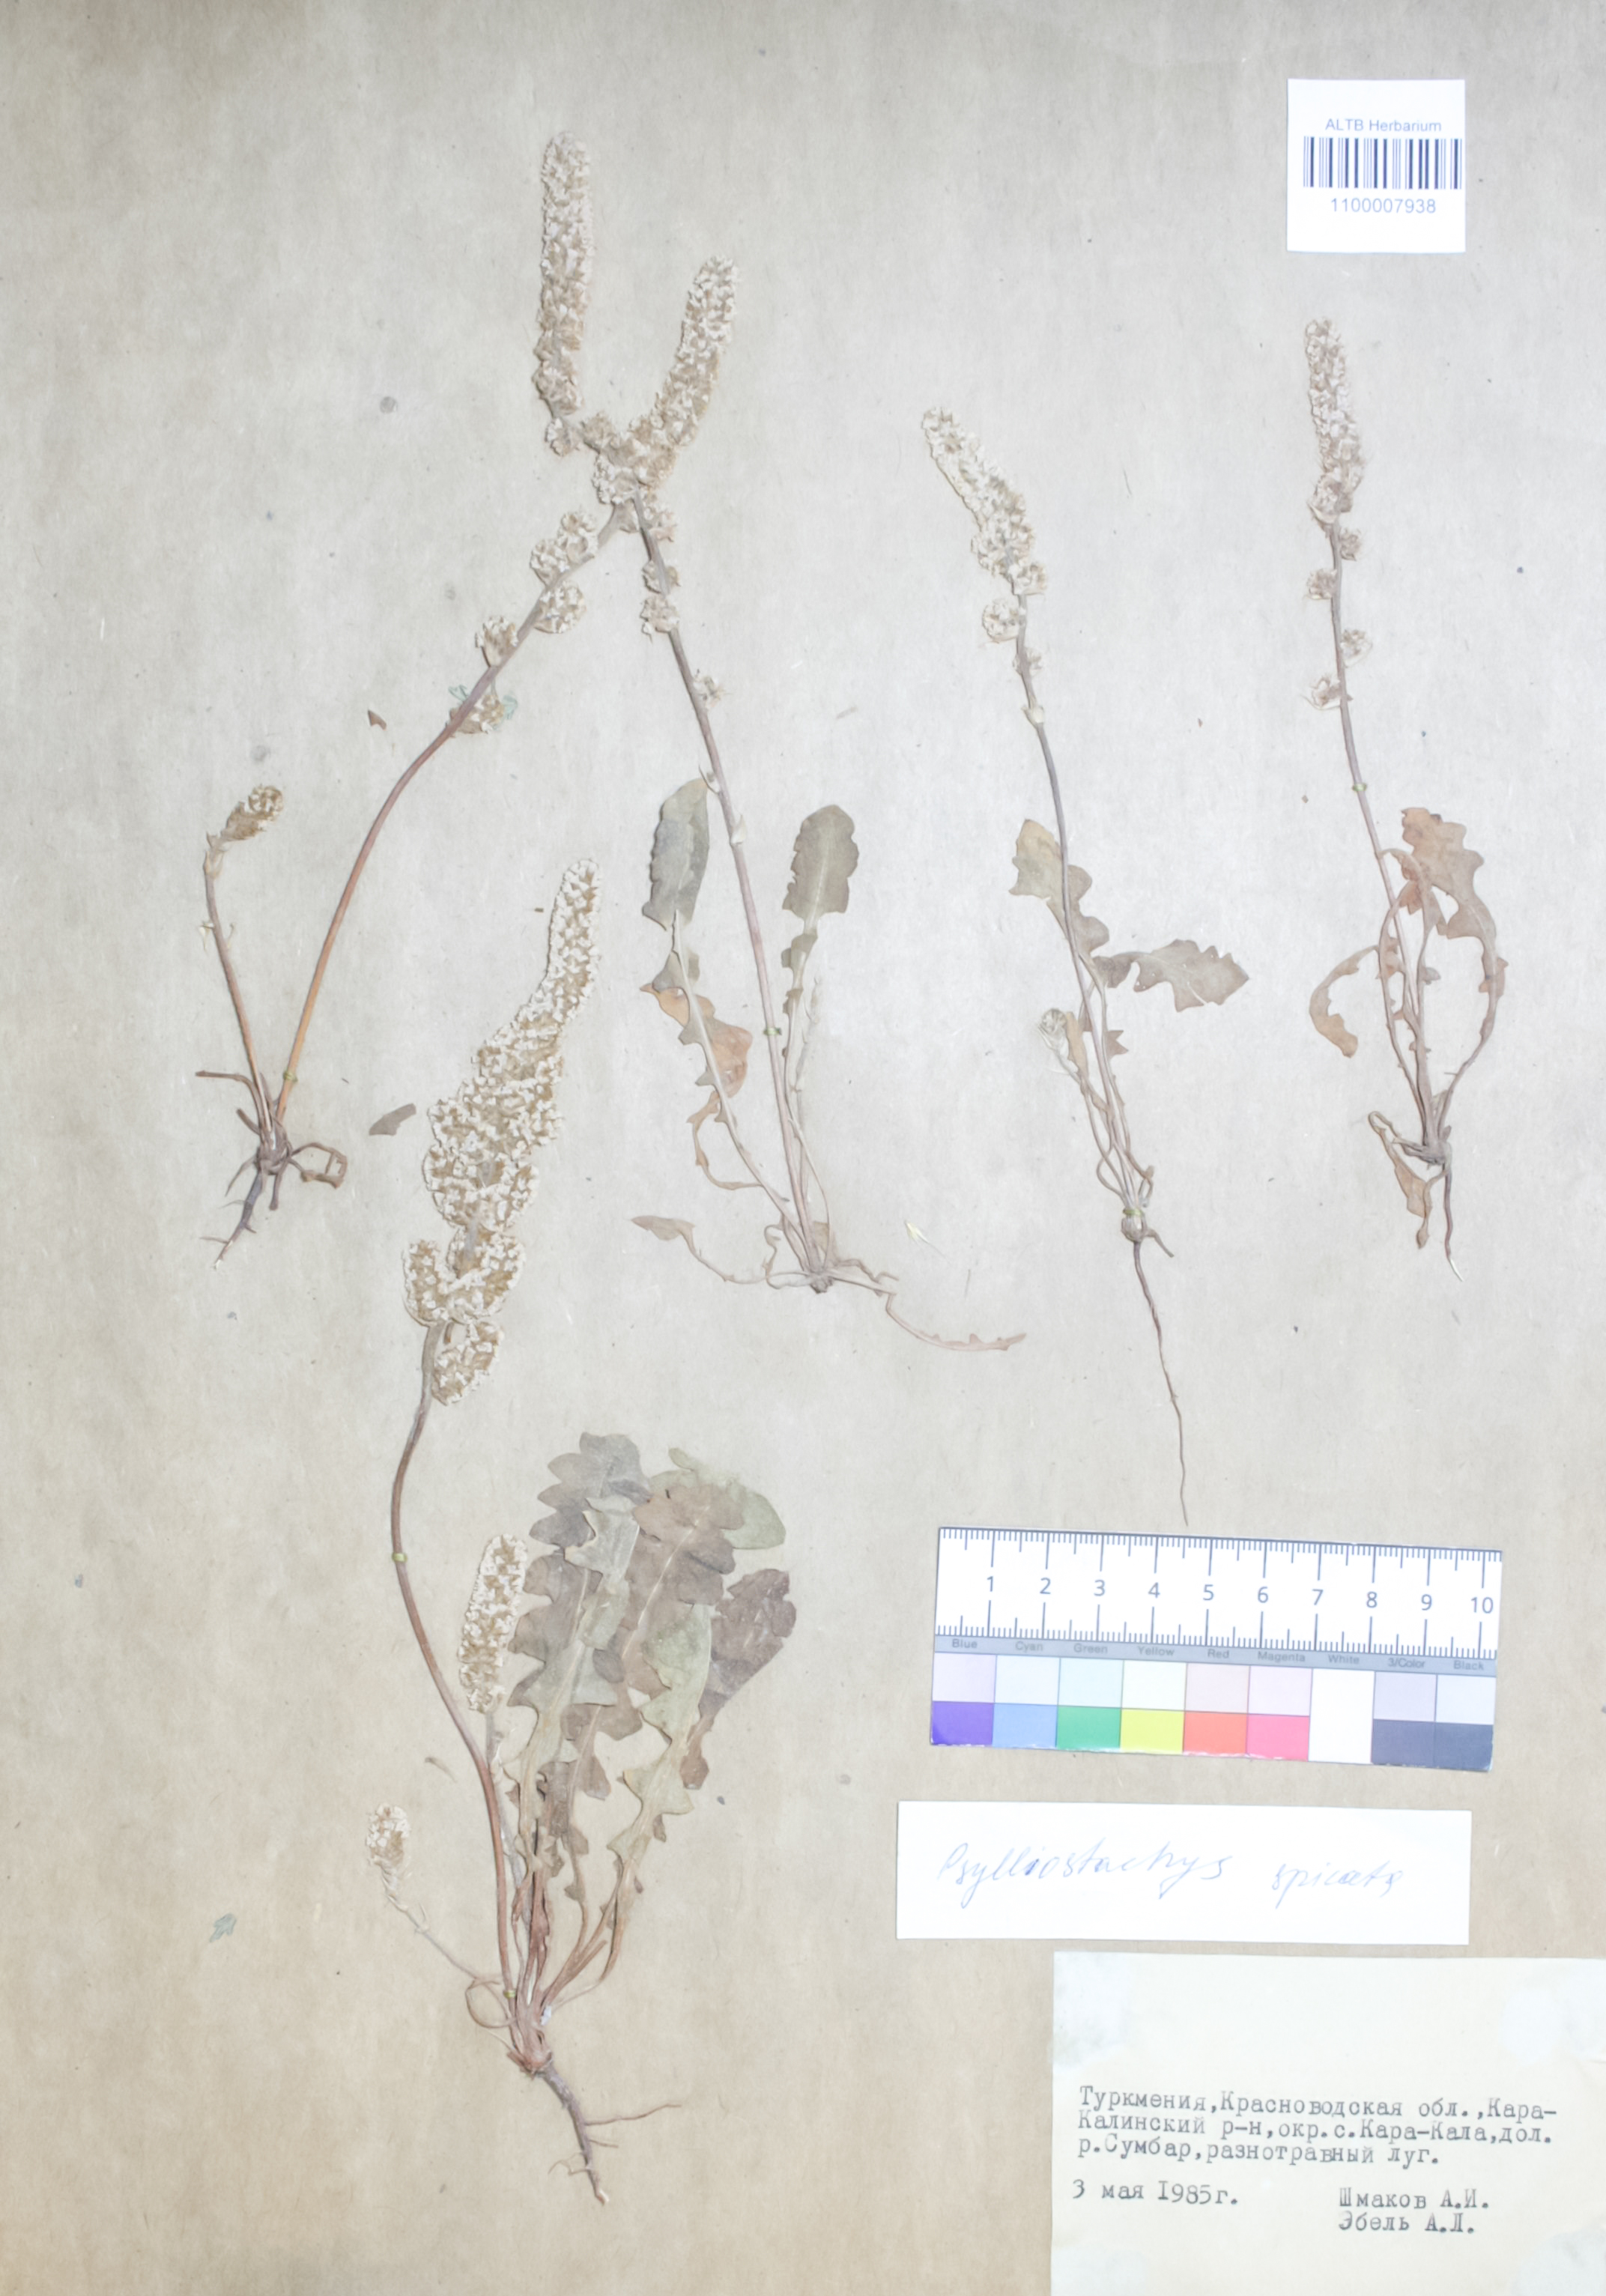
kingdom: Plantae
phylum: Tracheophyta
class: Magnoliopsida
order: Caryophyllales
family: Plumbaginaceae
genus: Psylliostachys
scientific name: Psylliostachys spicatus
